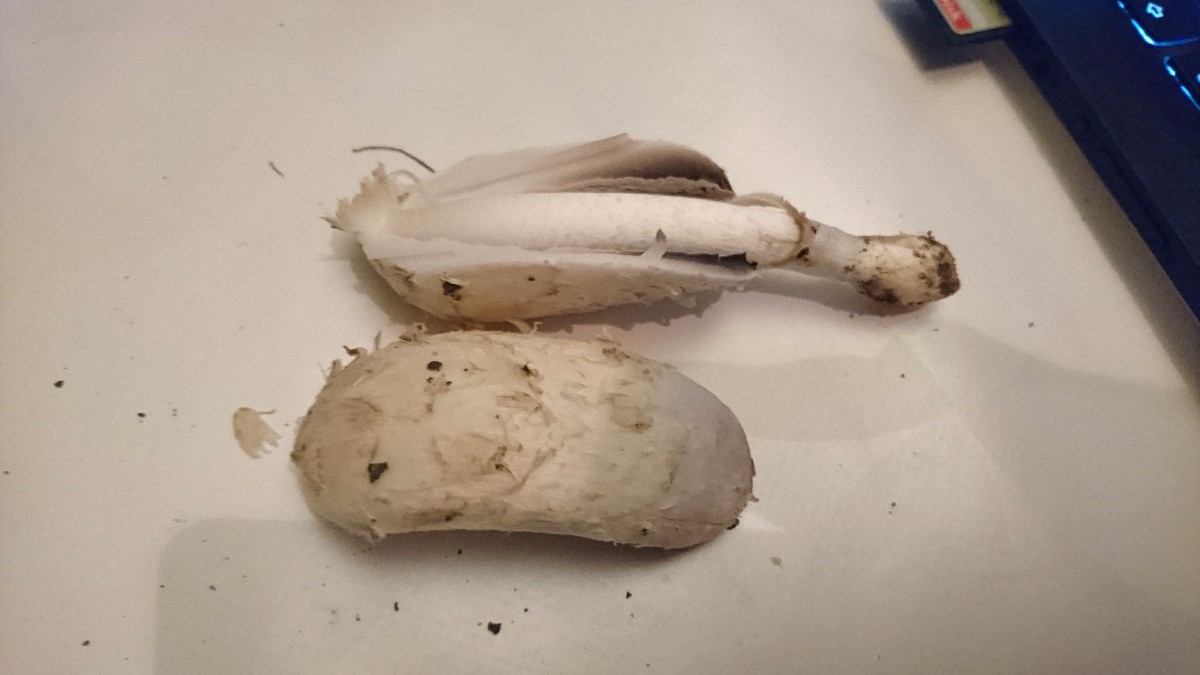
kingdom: Fungi
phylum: Basidiomycota
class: Agaricomycetes
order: Agaricales
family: Agaricaceae
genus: Coprinus
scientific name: Coprinus comatus
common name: stor parykhat
